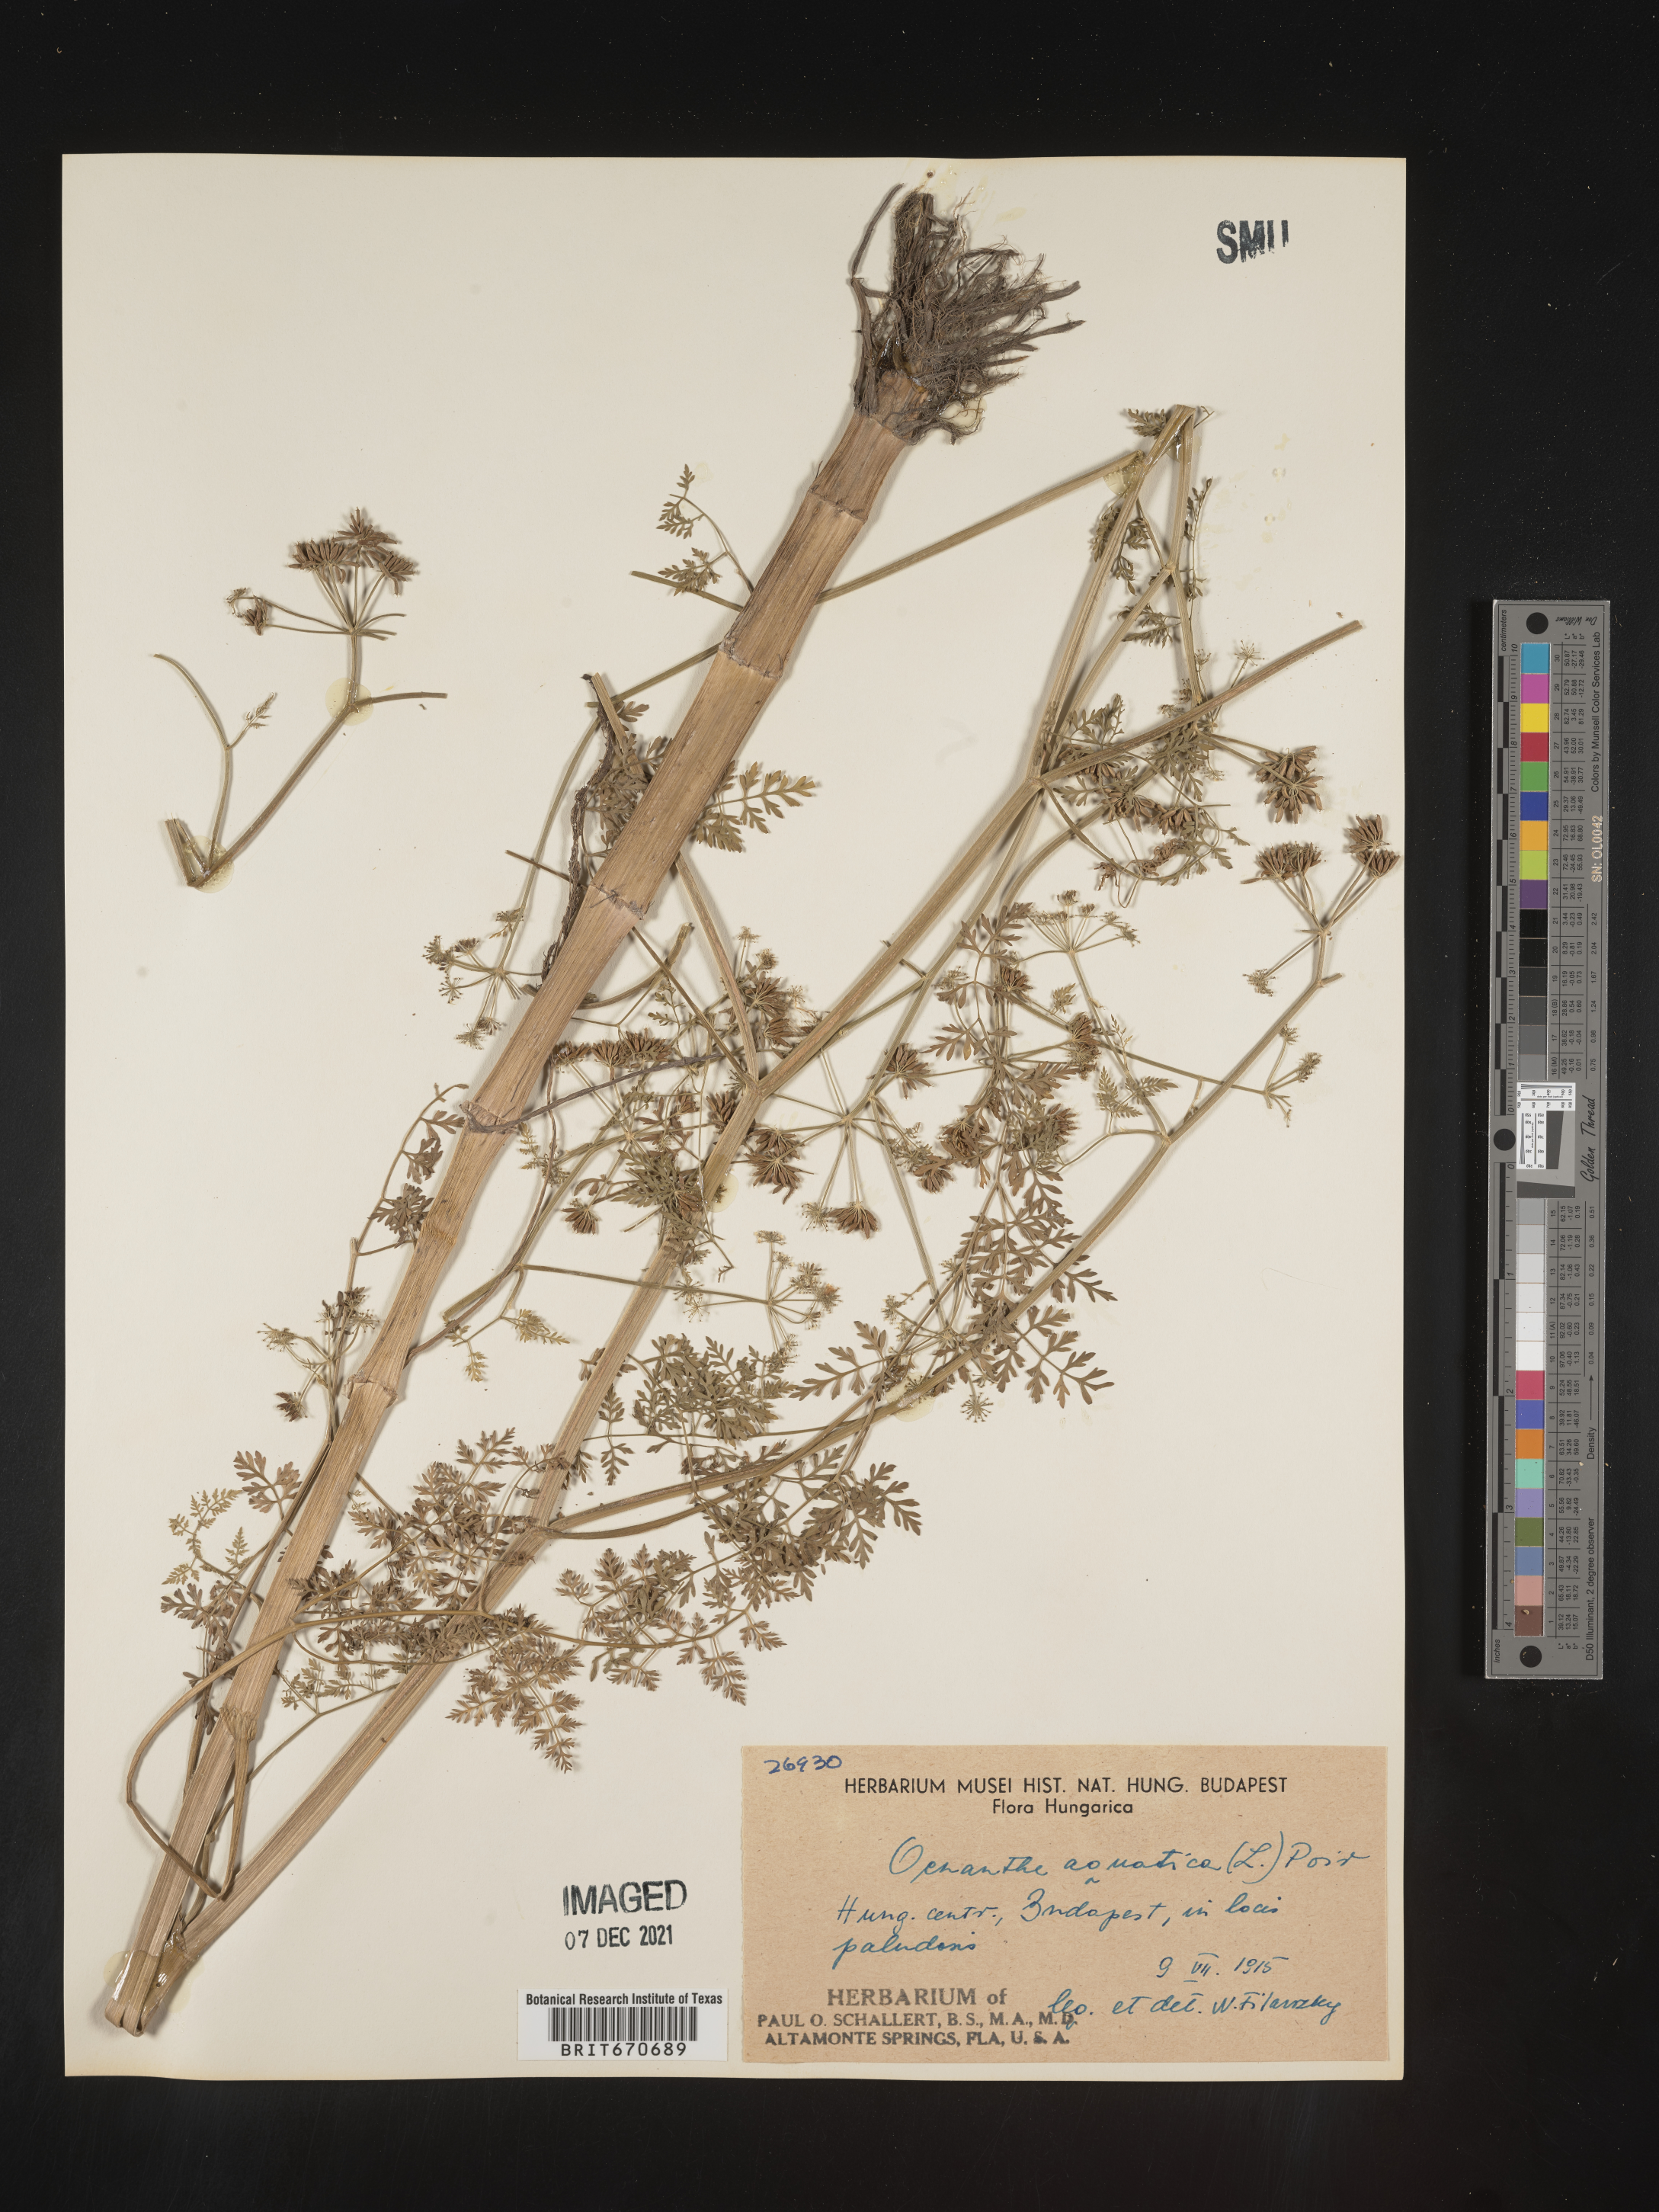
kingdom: Plantae
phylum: Tracheophyta
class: Magnoliopsida
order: Apiales
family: Apiaceae
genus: Oenanthe
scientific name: Oenanthe
